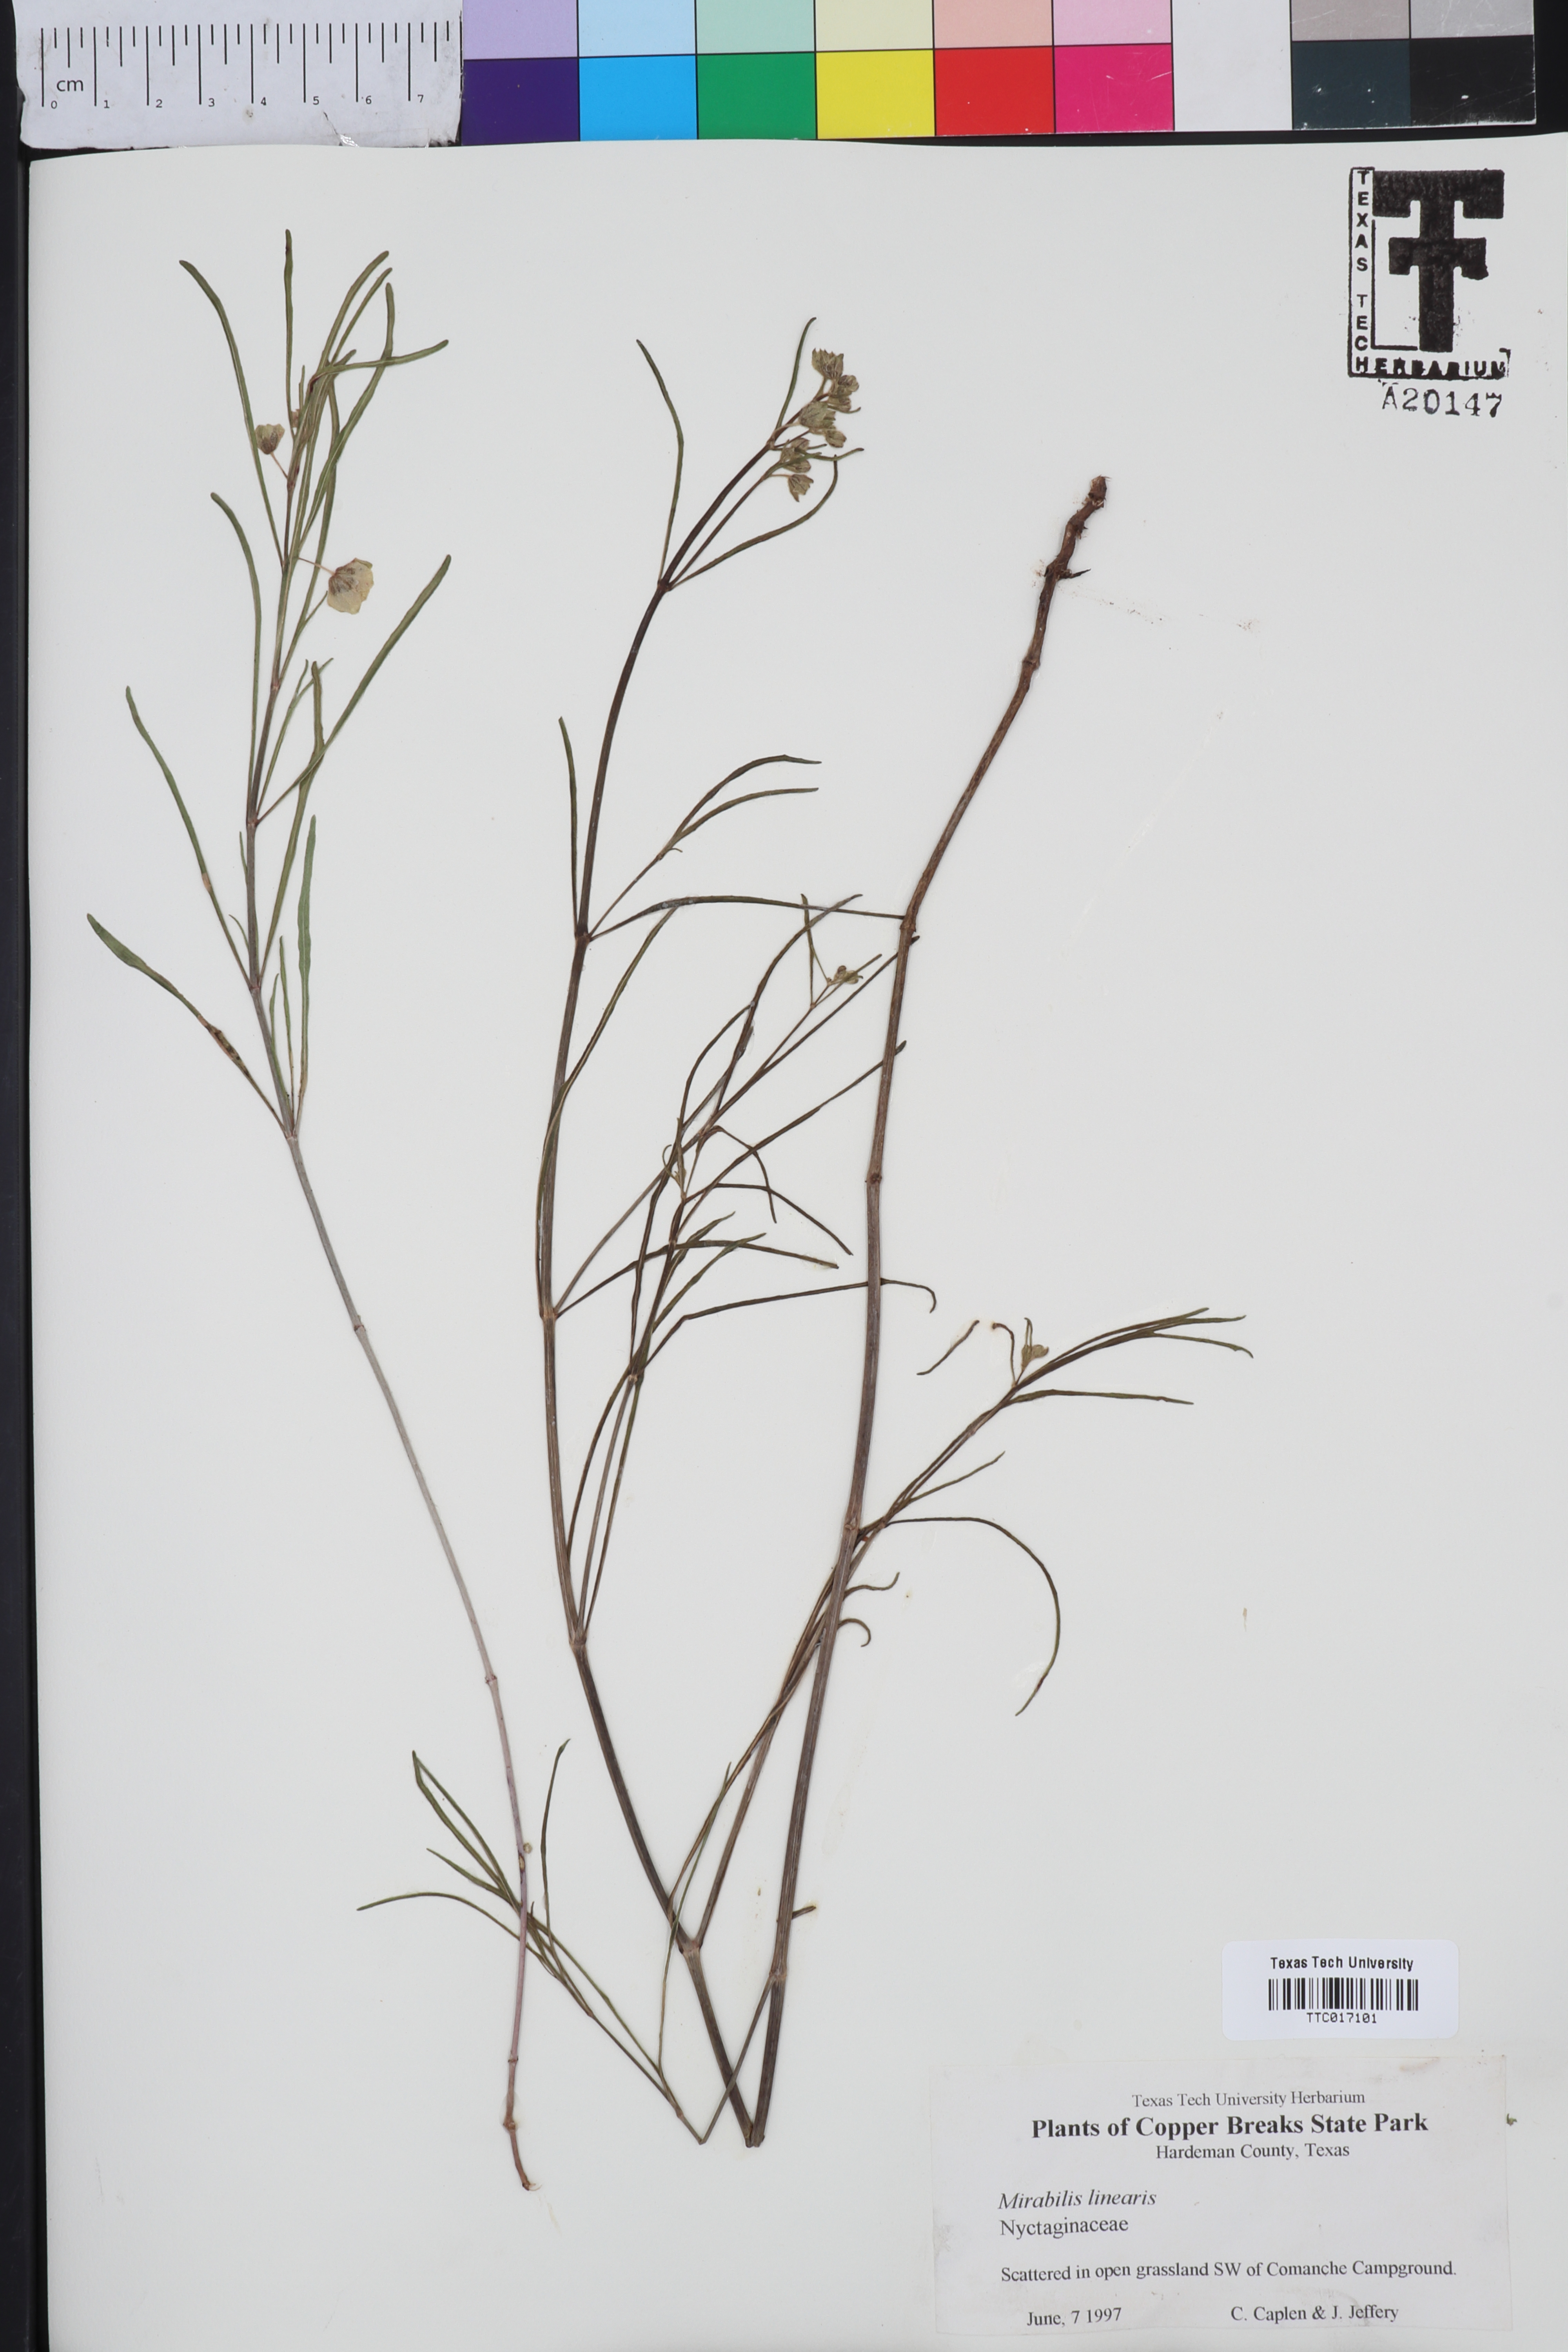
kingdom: Plantae
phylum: Tracheophyta
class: Magnoliopsida
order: Caryophyllales
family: Nyctaginaceae
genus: Mirabilis
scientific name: Mirabilis linearis
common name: Linear-leaved four-o'clock
